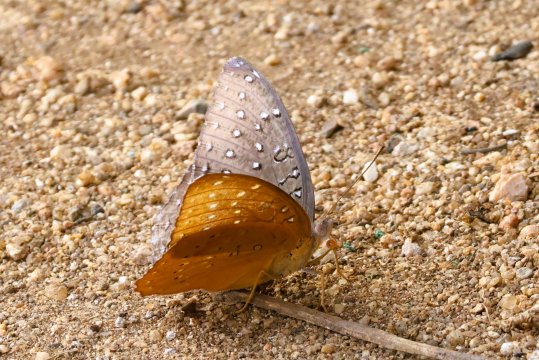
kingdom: Animalia
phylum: Arthropoda
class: Insecta
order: Lepidoptera
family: Nymphalidae
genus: Hamanumida
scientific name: Hamanumida daedalus
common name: Guineafowl
